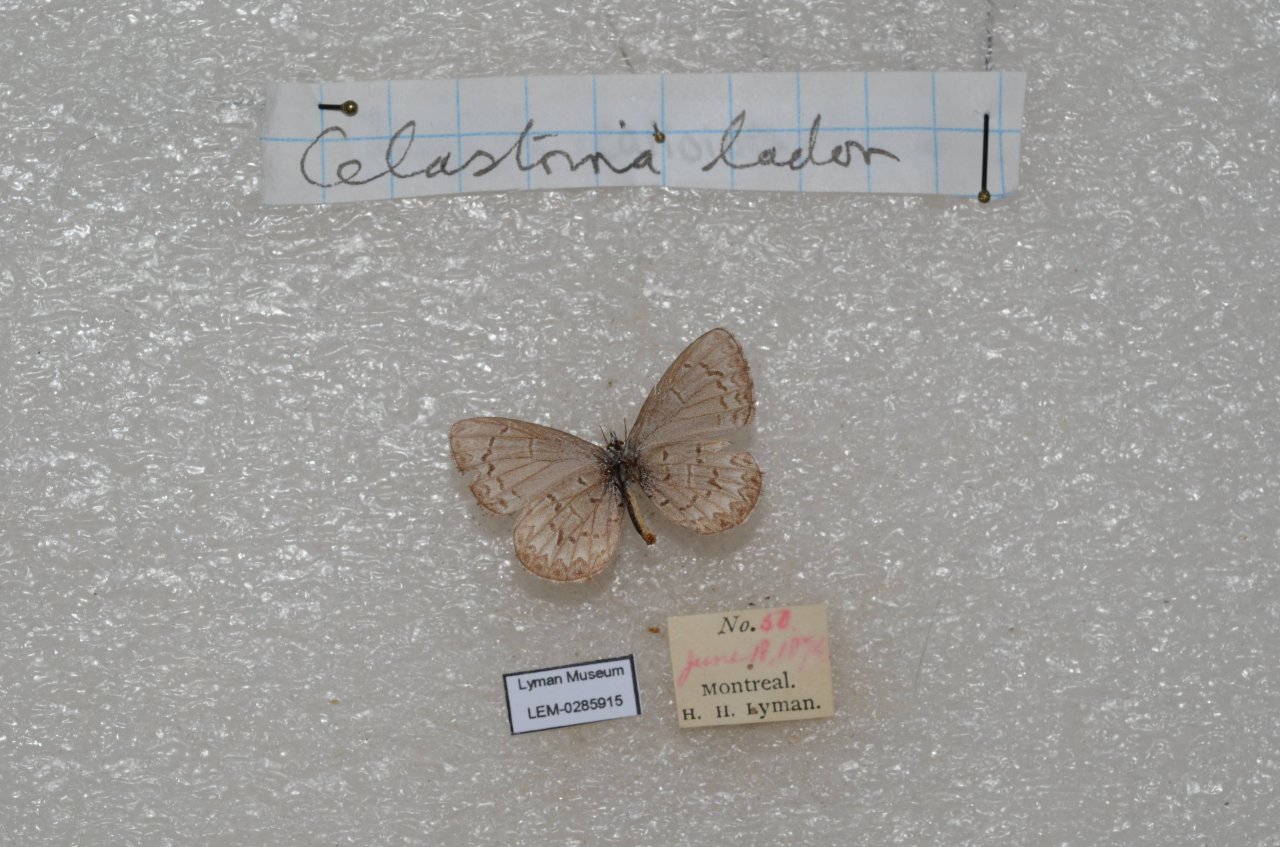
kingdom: Animalia
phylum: Arthropoda
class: Insecta
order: Lepidoptera
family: Lycaenidae
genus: Celastrina
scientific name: Celastrina lucia
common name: Northern Spring Azure
